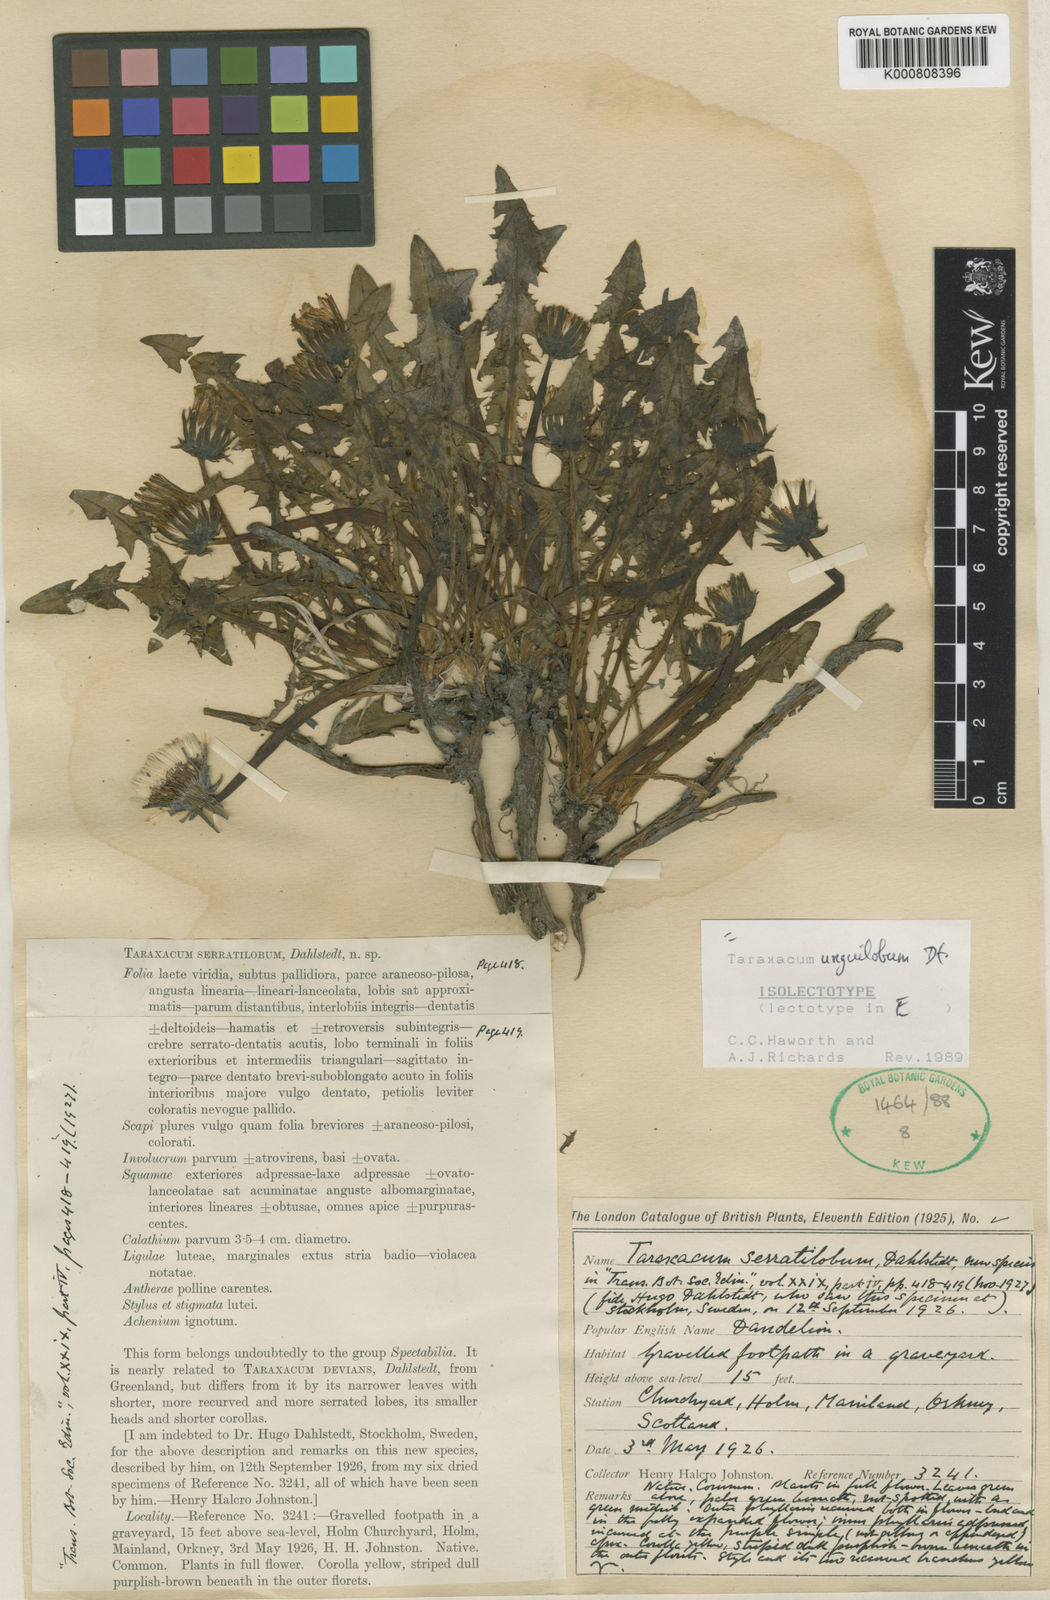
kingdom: Plantae
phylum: Tracheophyta
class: Magnoliopsida
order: Asterales
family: Asteraceae
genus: Taraxacum
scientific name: Taraxacum unguilobum
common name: Claw-lobed dandelion
